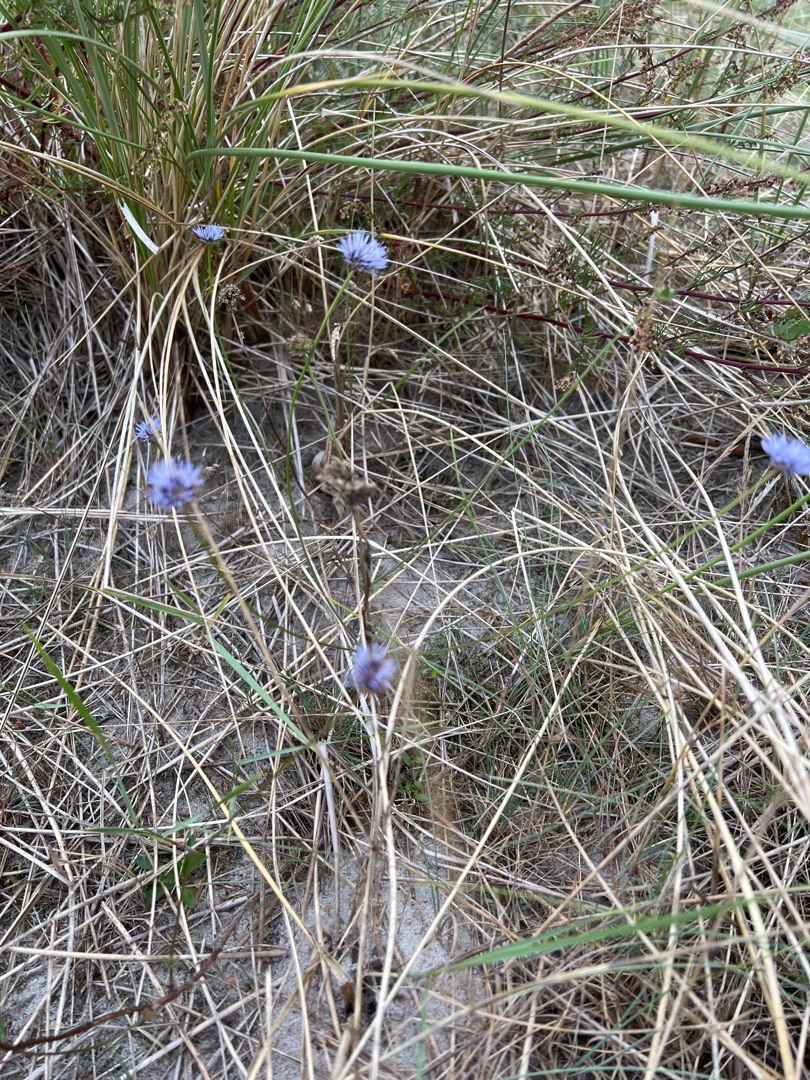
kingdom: Plantae
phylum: Tracheophyta
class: Magnoliopsida
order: Asterales
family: Campanulaceae
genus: Jasione
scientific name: Jasione montana
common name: Blåmunke
